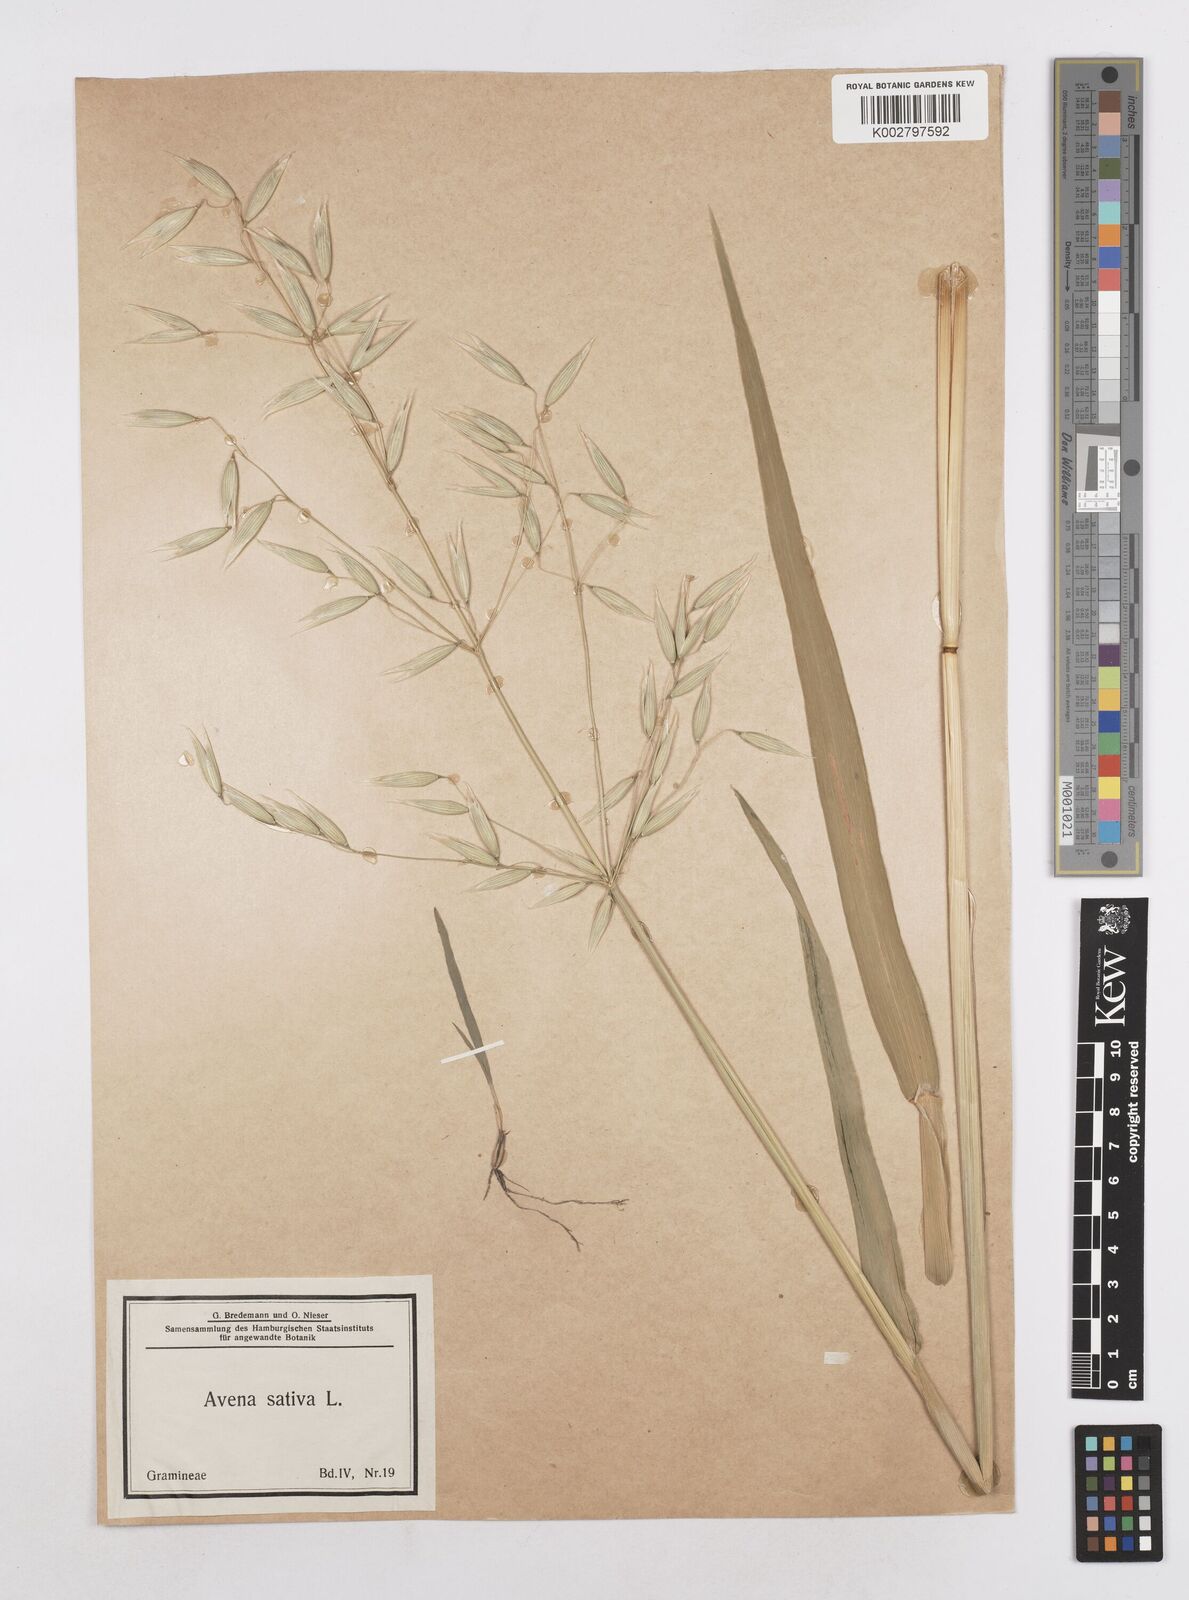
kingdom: Plantae
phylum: Tracheophyta
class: Liliopsida
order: Poales
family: Poaceae
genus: Avena
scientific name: Avena sativa
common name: Oat
